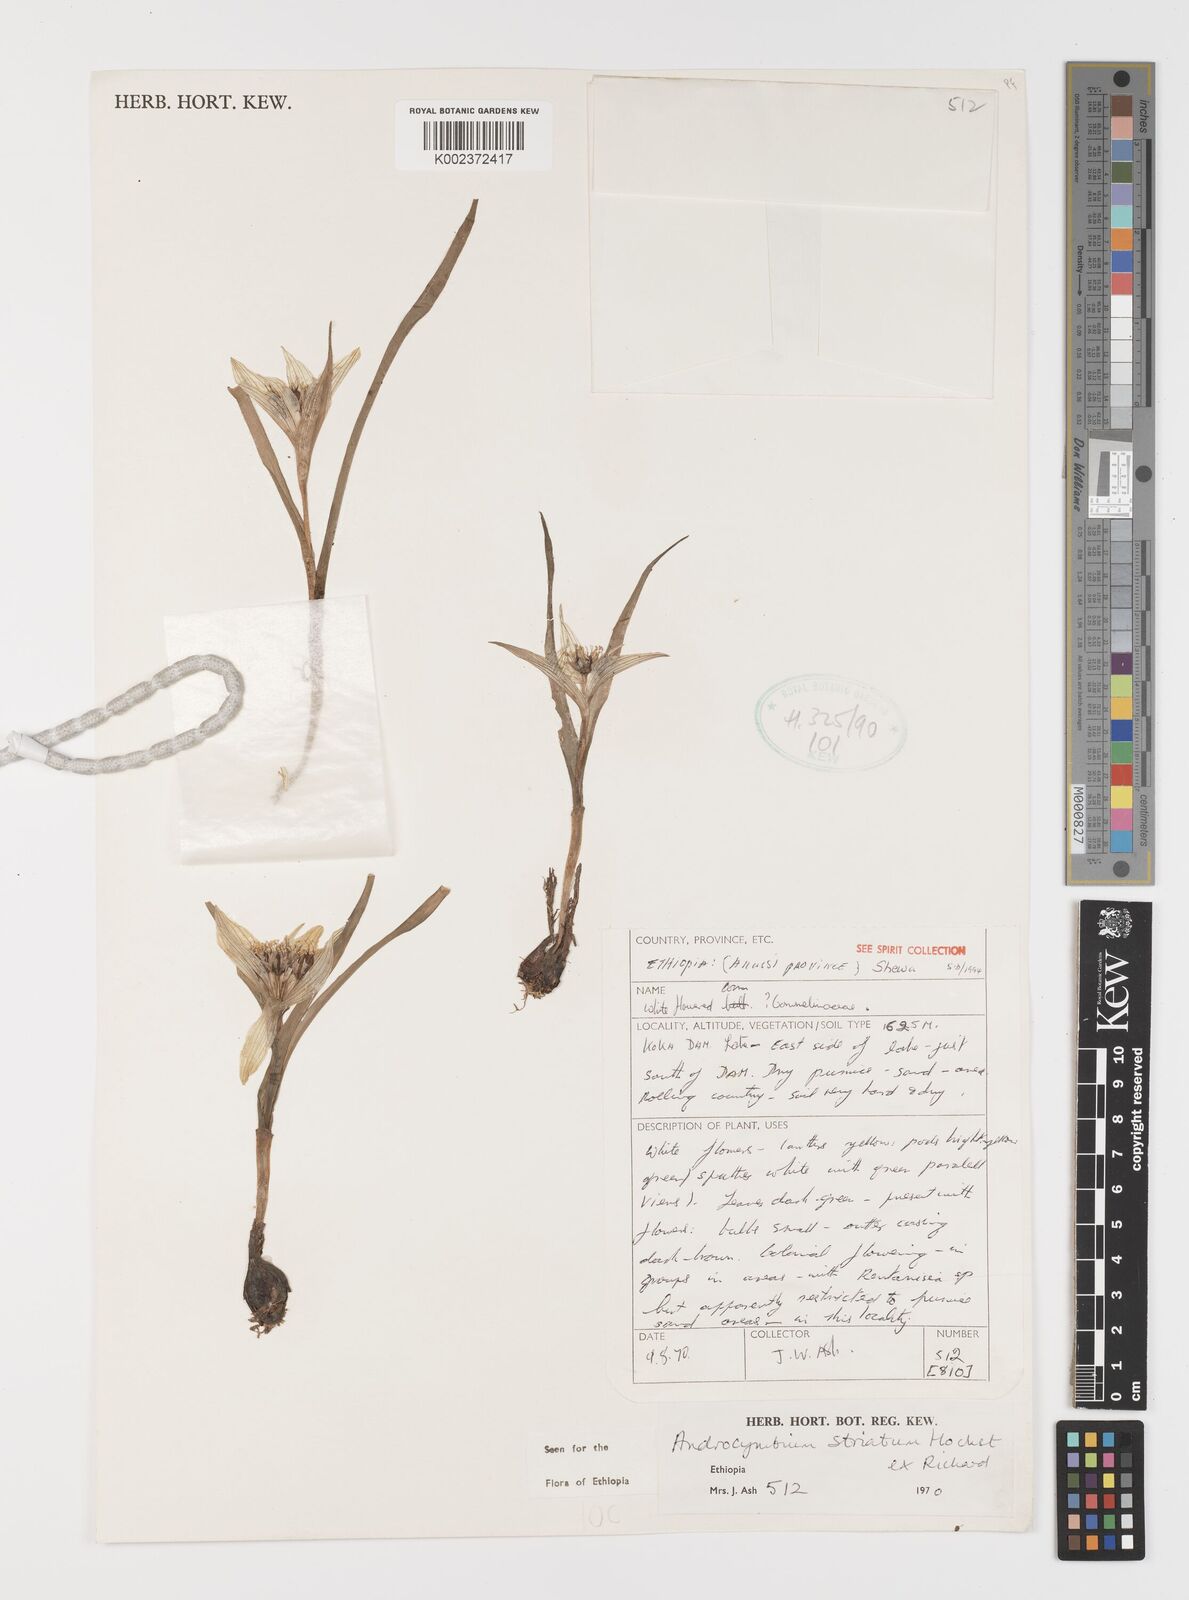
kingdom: Plantae
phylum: Tracheophyta
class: Liliopsida
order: Liliales
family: Colchicaceae
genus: Colchicum
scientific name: Colchicum striatum
